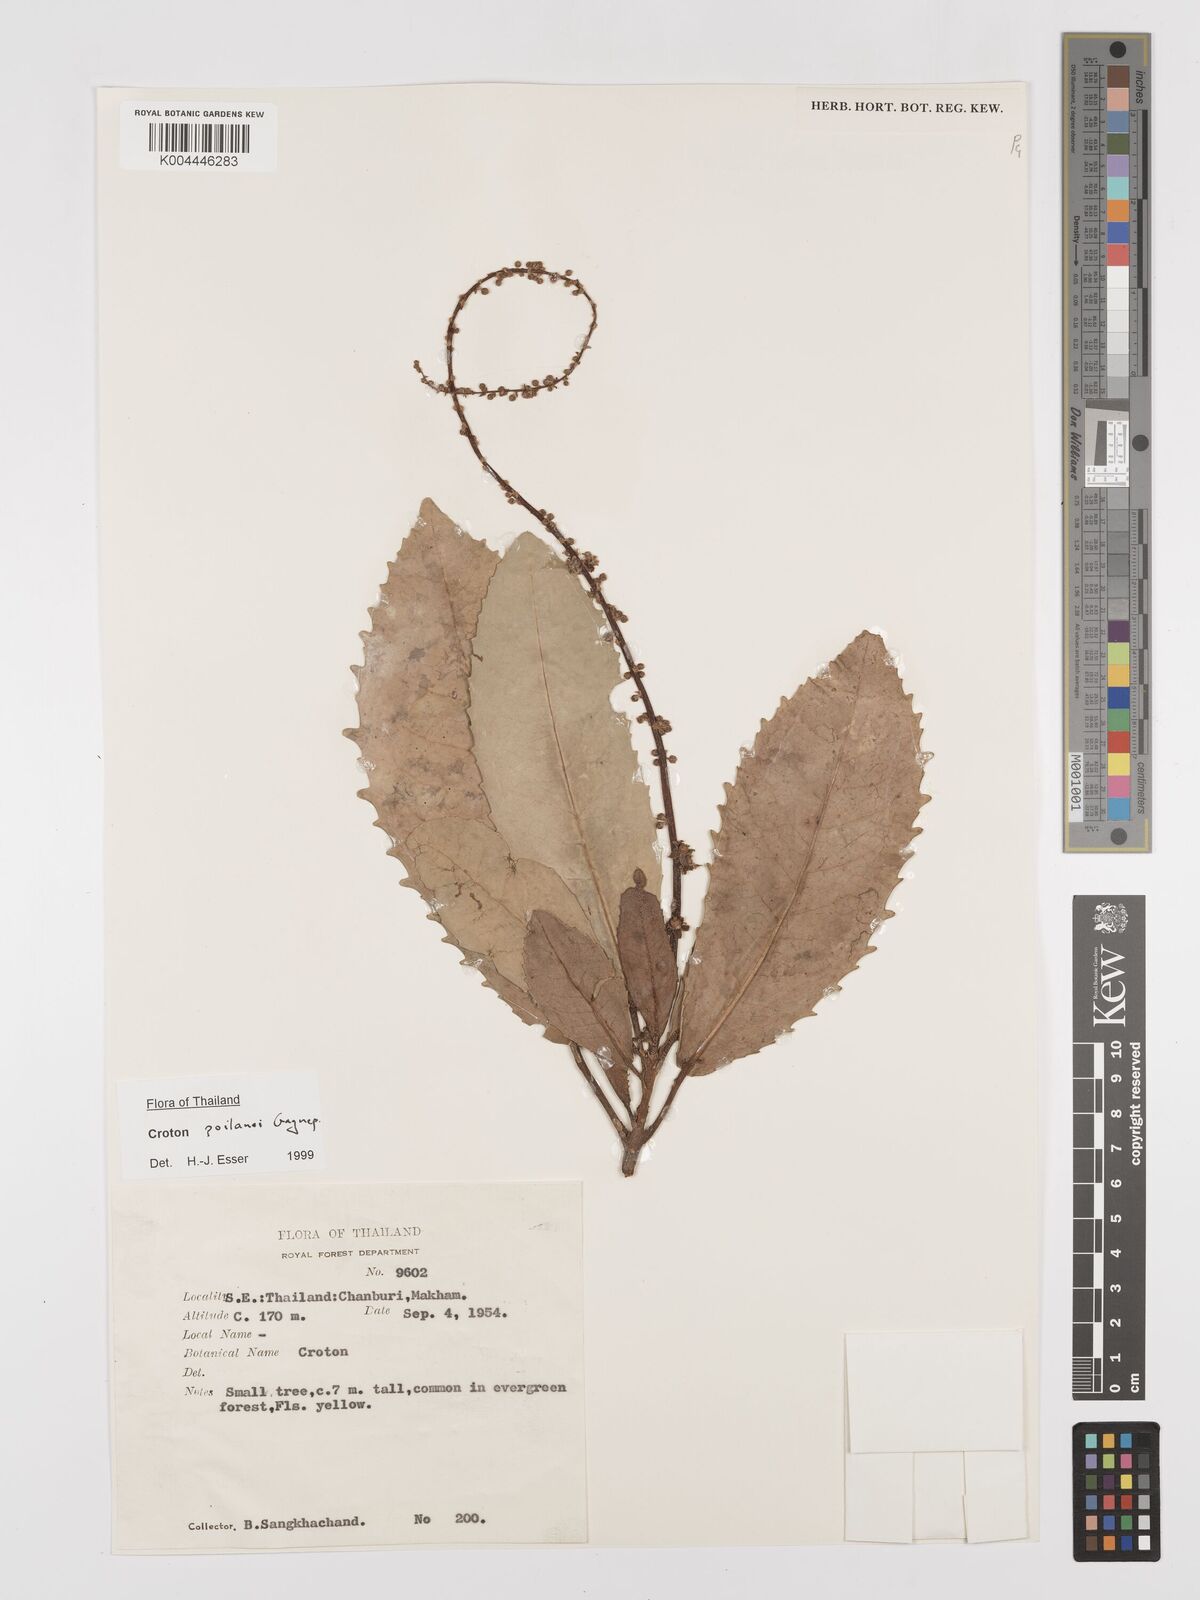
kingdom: Plantae
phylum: Tracheophyta
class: Magnoliopsida
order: Malpighiales
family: Euphorbiaceae
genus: Croton
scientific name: Croton poilanei
